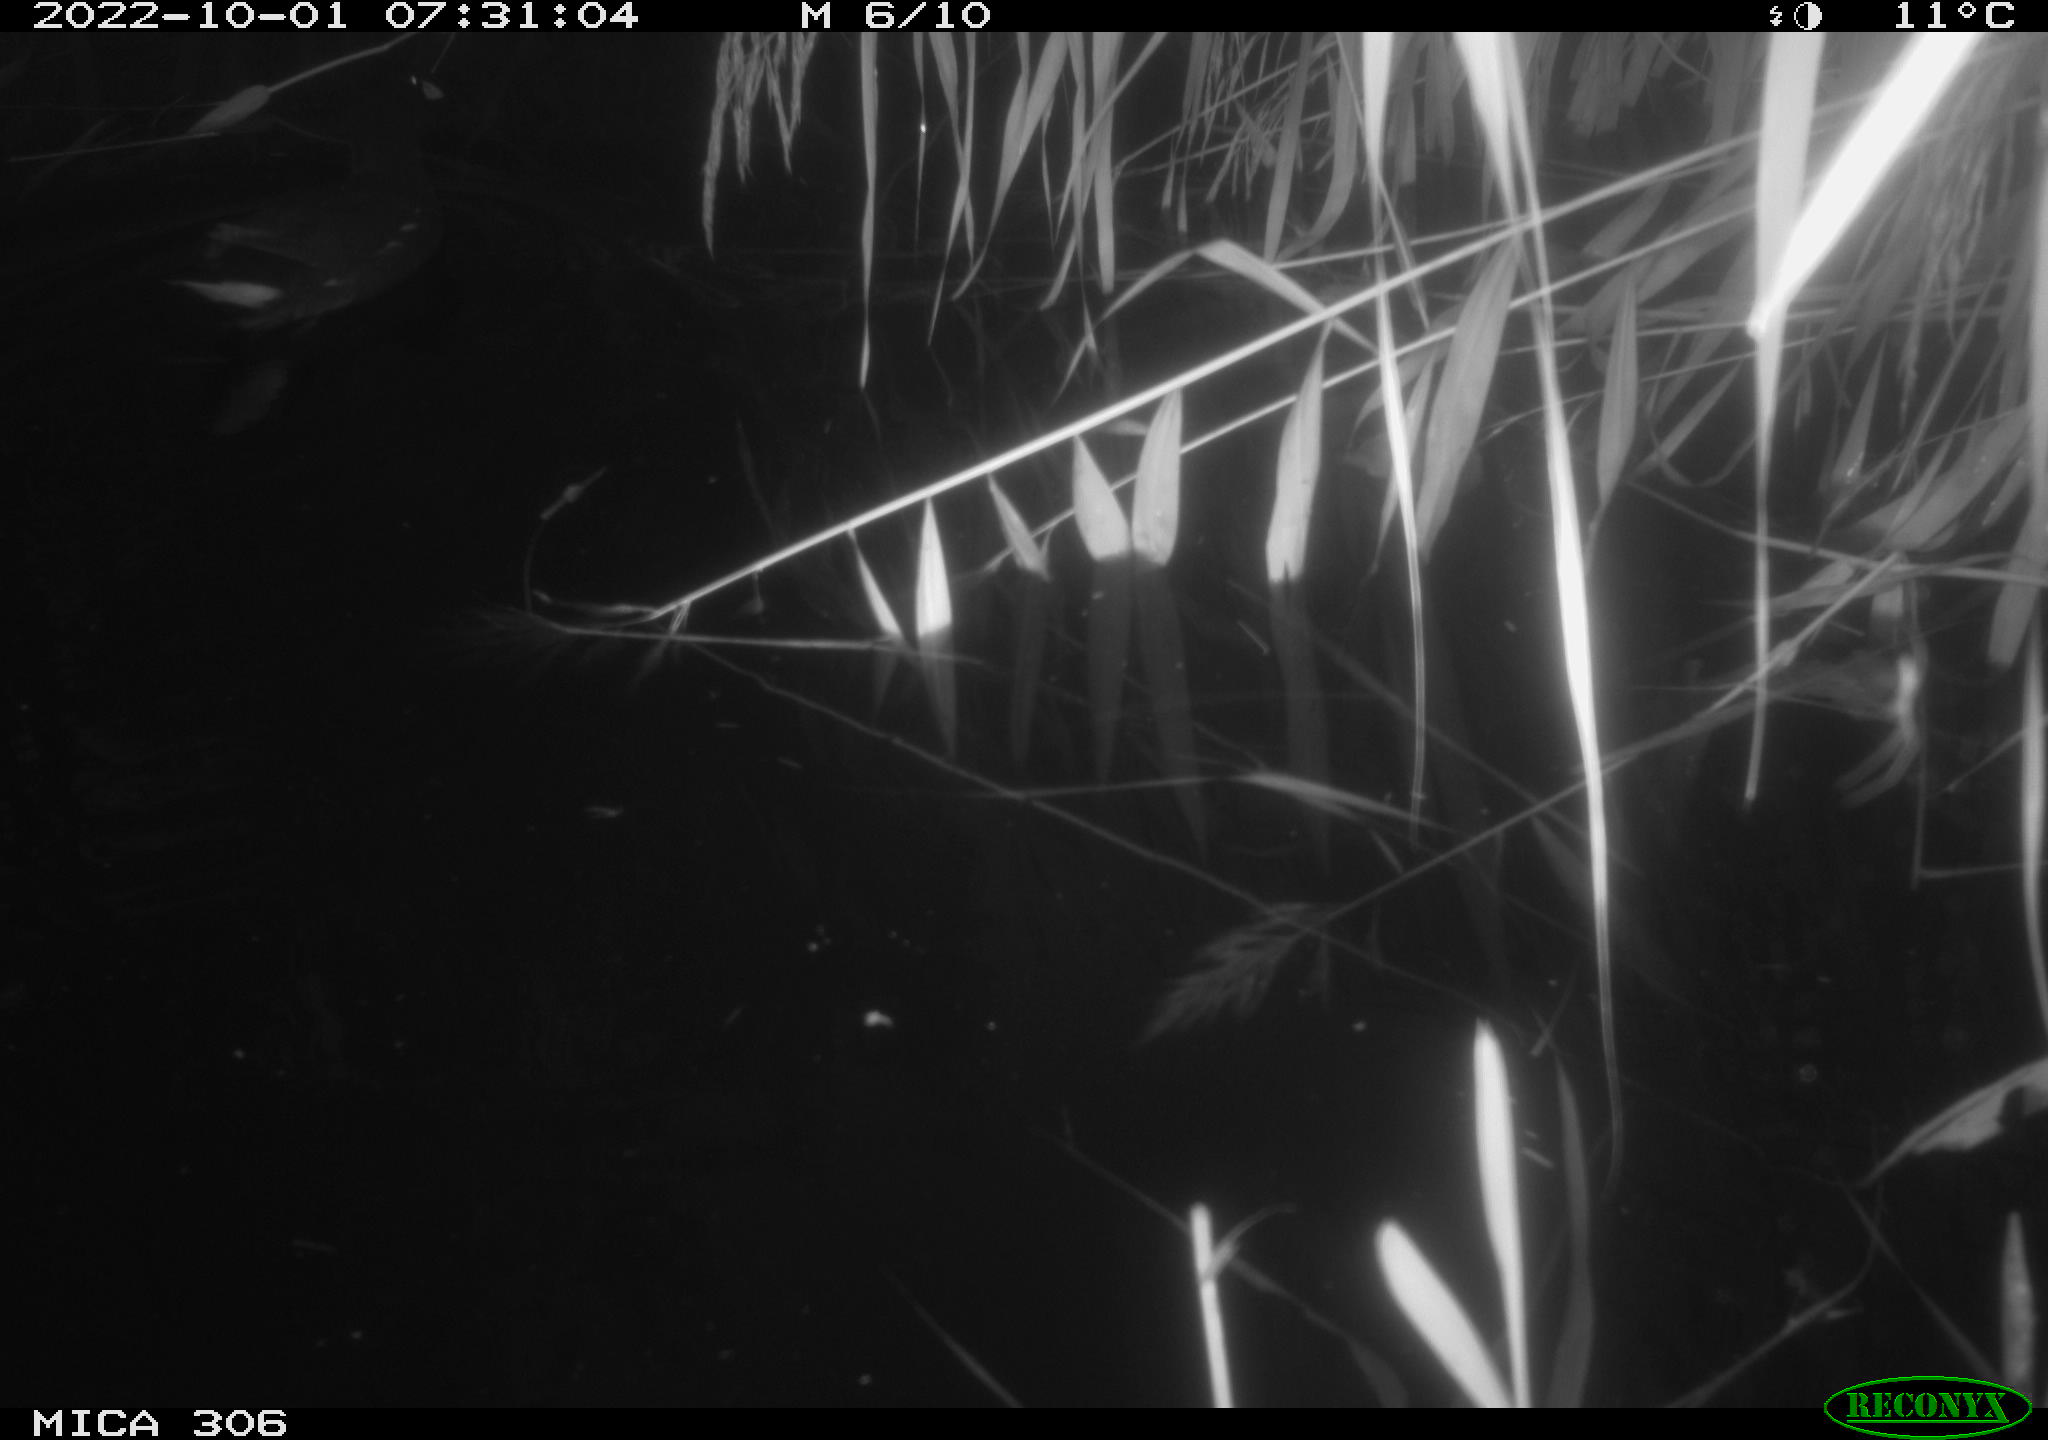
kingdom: Animalia
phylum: Chordata
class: Aves
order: Gruiformes
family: Rallidae
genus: Gallinula
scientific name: Gallinula chloropus
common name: Common moorhen
